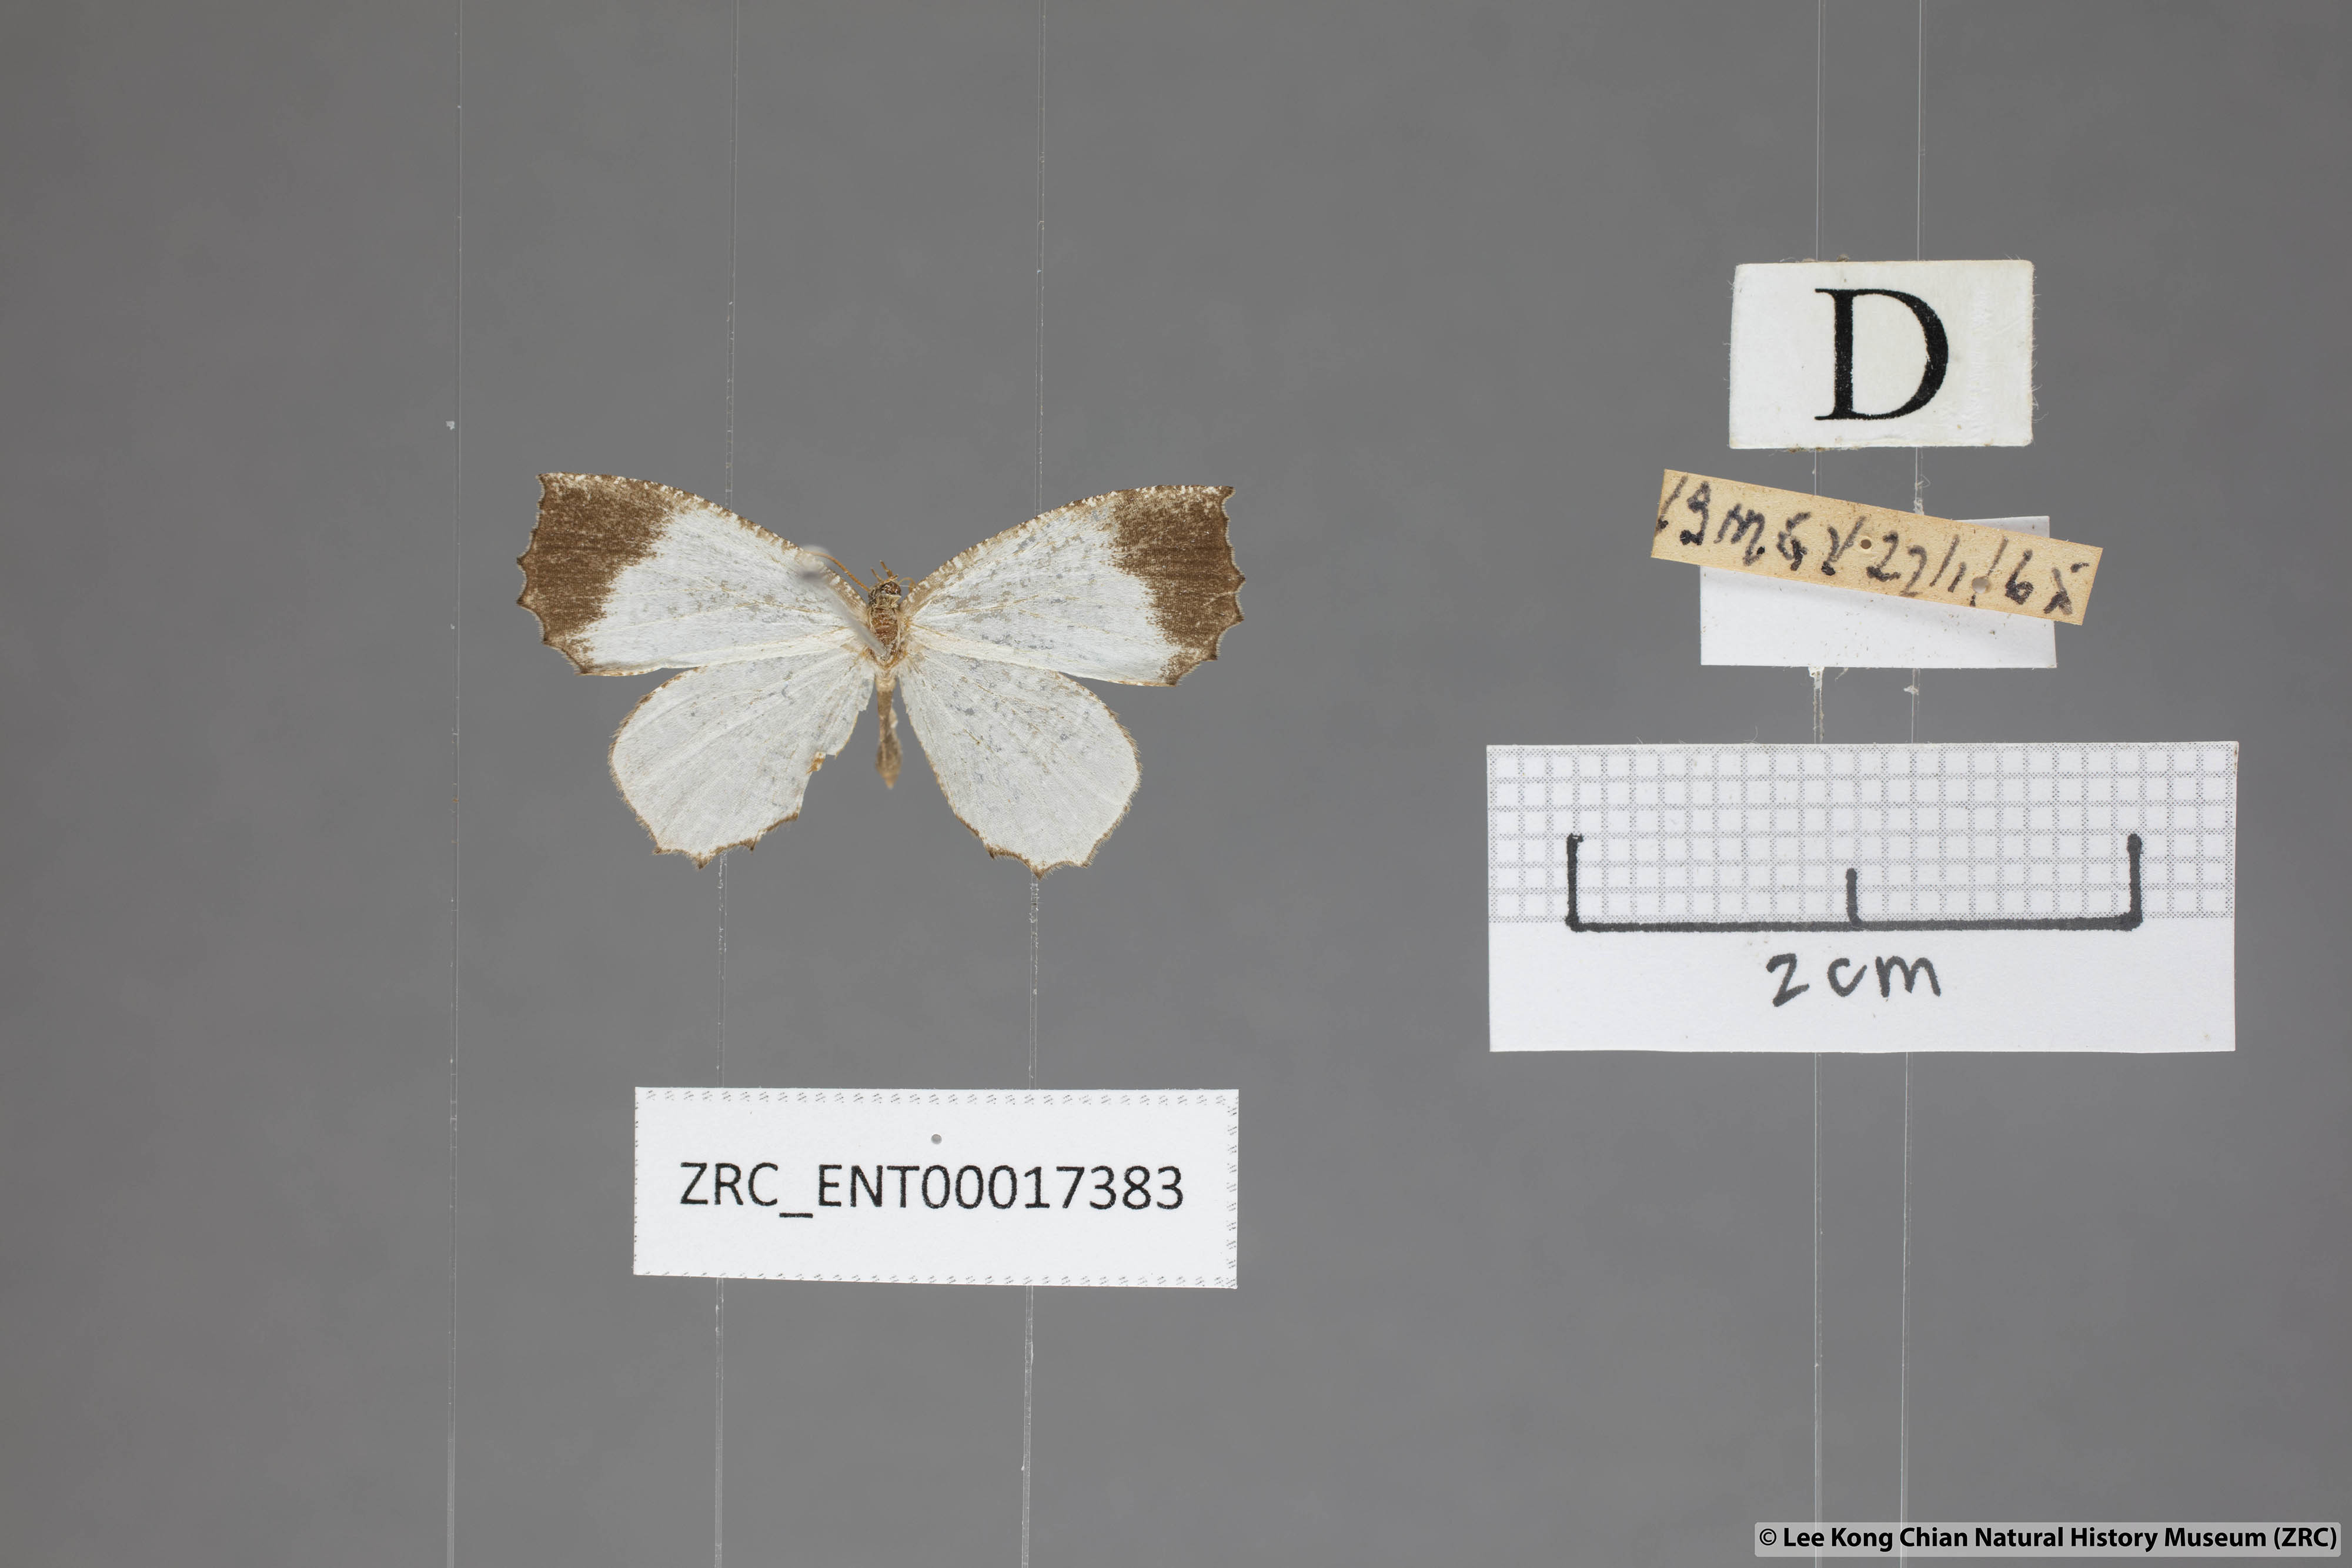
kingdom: Animalia
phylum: Arthropoda
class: Insecta
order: Lepidoptera
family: Lycaenidae
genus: Logania
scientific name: Logania malayica
